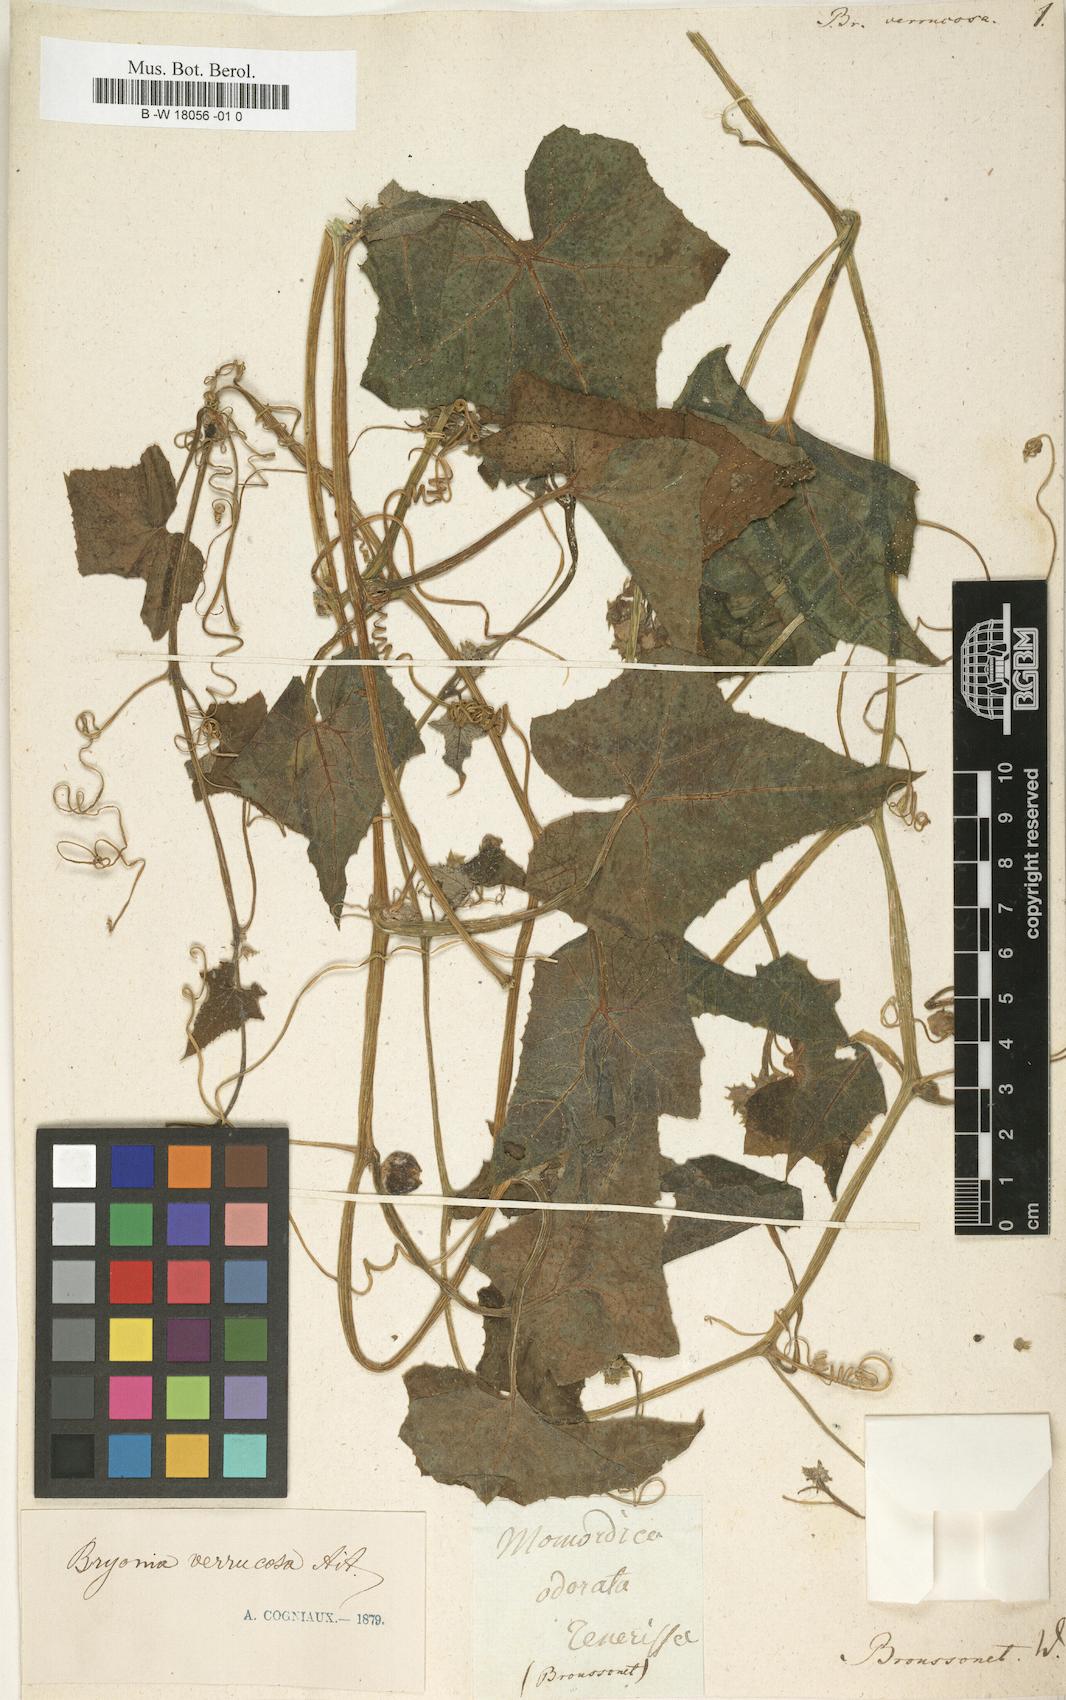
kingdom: Plantae
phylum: Tracheophyta
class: Magnoliopsida
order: Cucurbitales
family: Cucurbitaceae
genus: Bryonia
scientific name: Bryonia verrucosa
